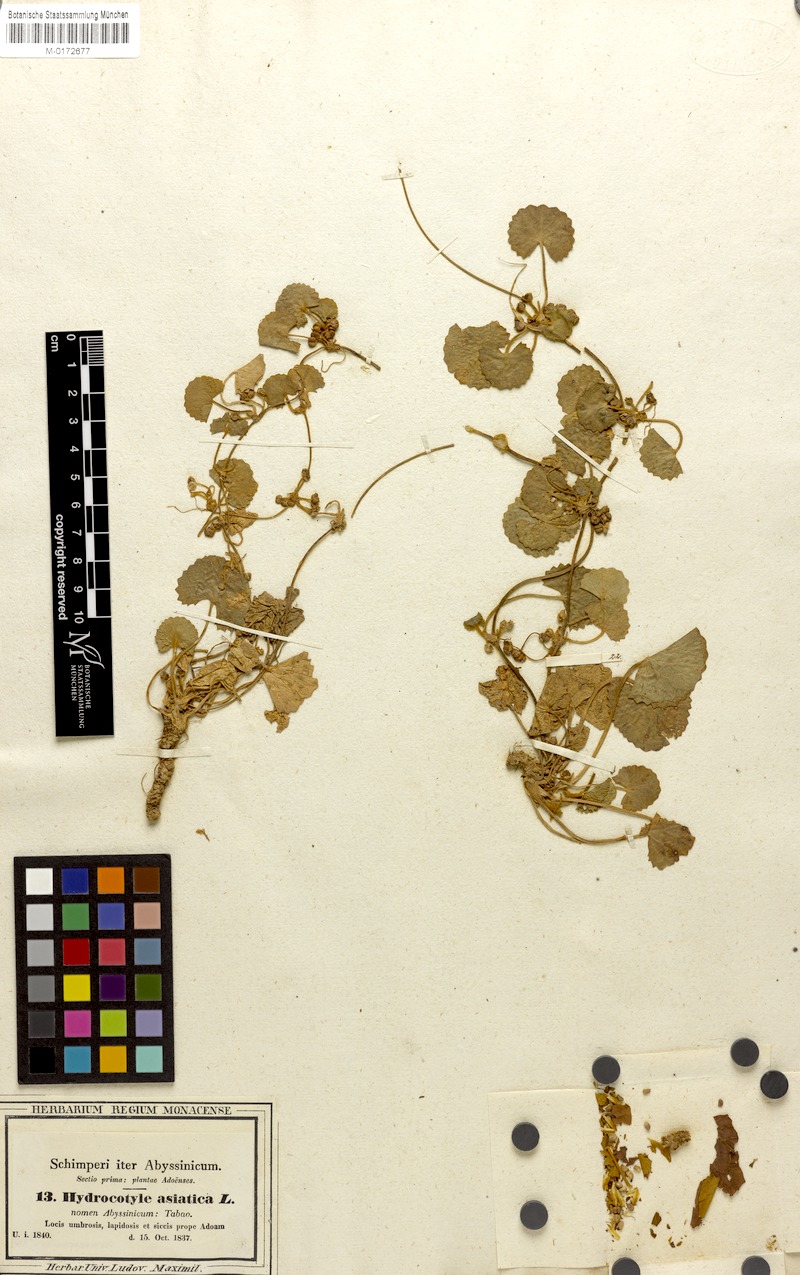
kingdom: Plantae
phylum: Tracheophyta
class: Magnoliopsida
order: Apiales
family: Apiaceae
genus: Centella
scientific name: Centella asiatica
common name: Spadeleaf
